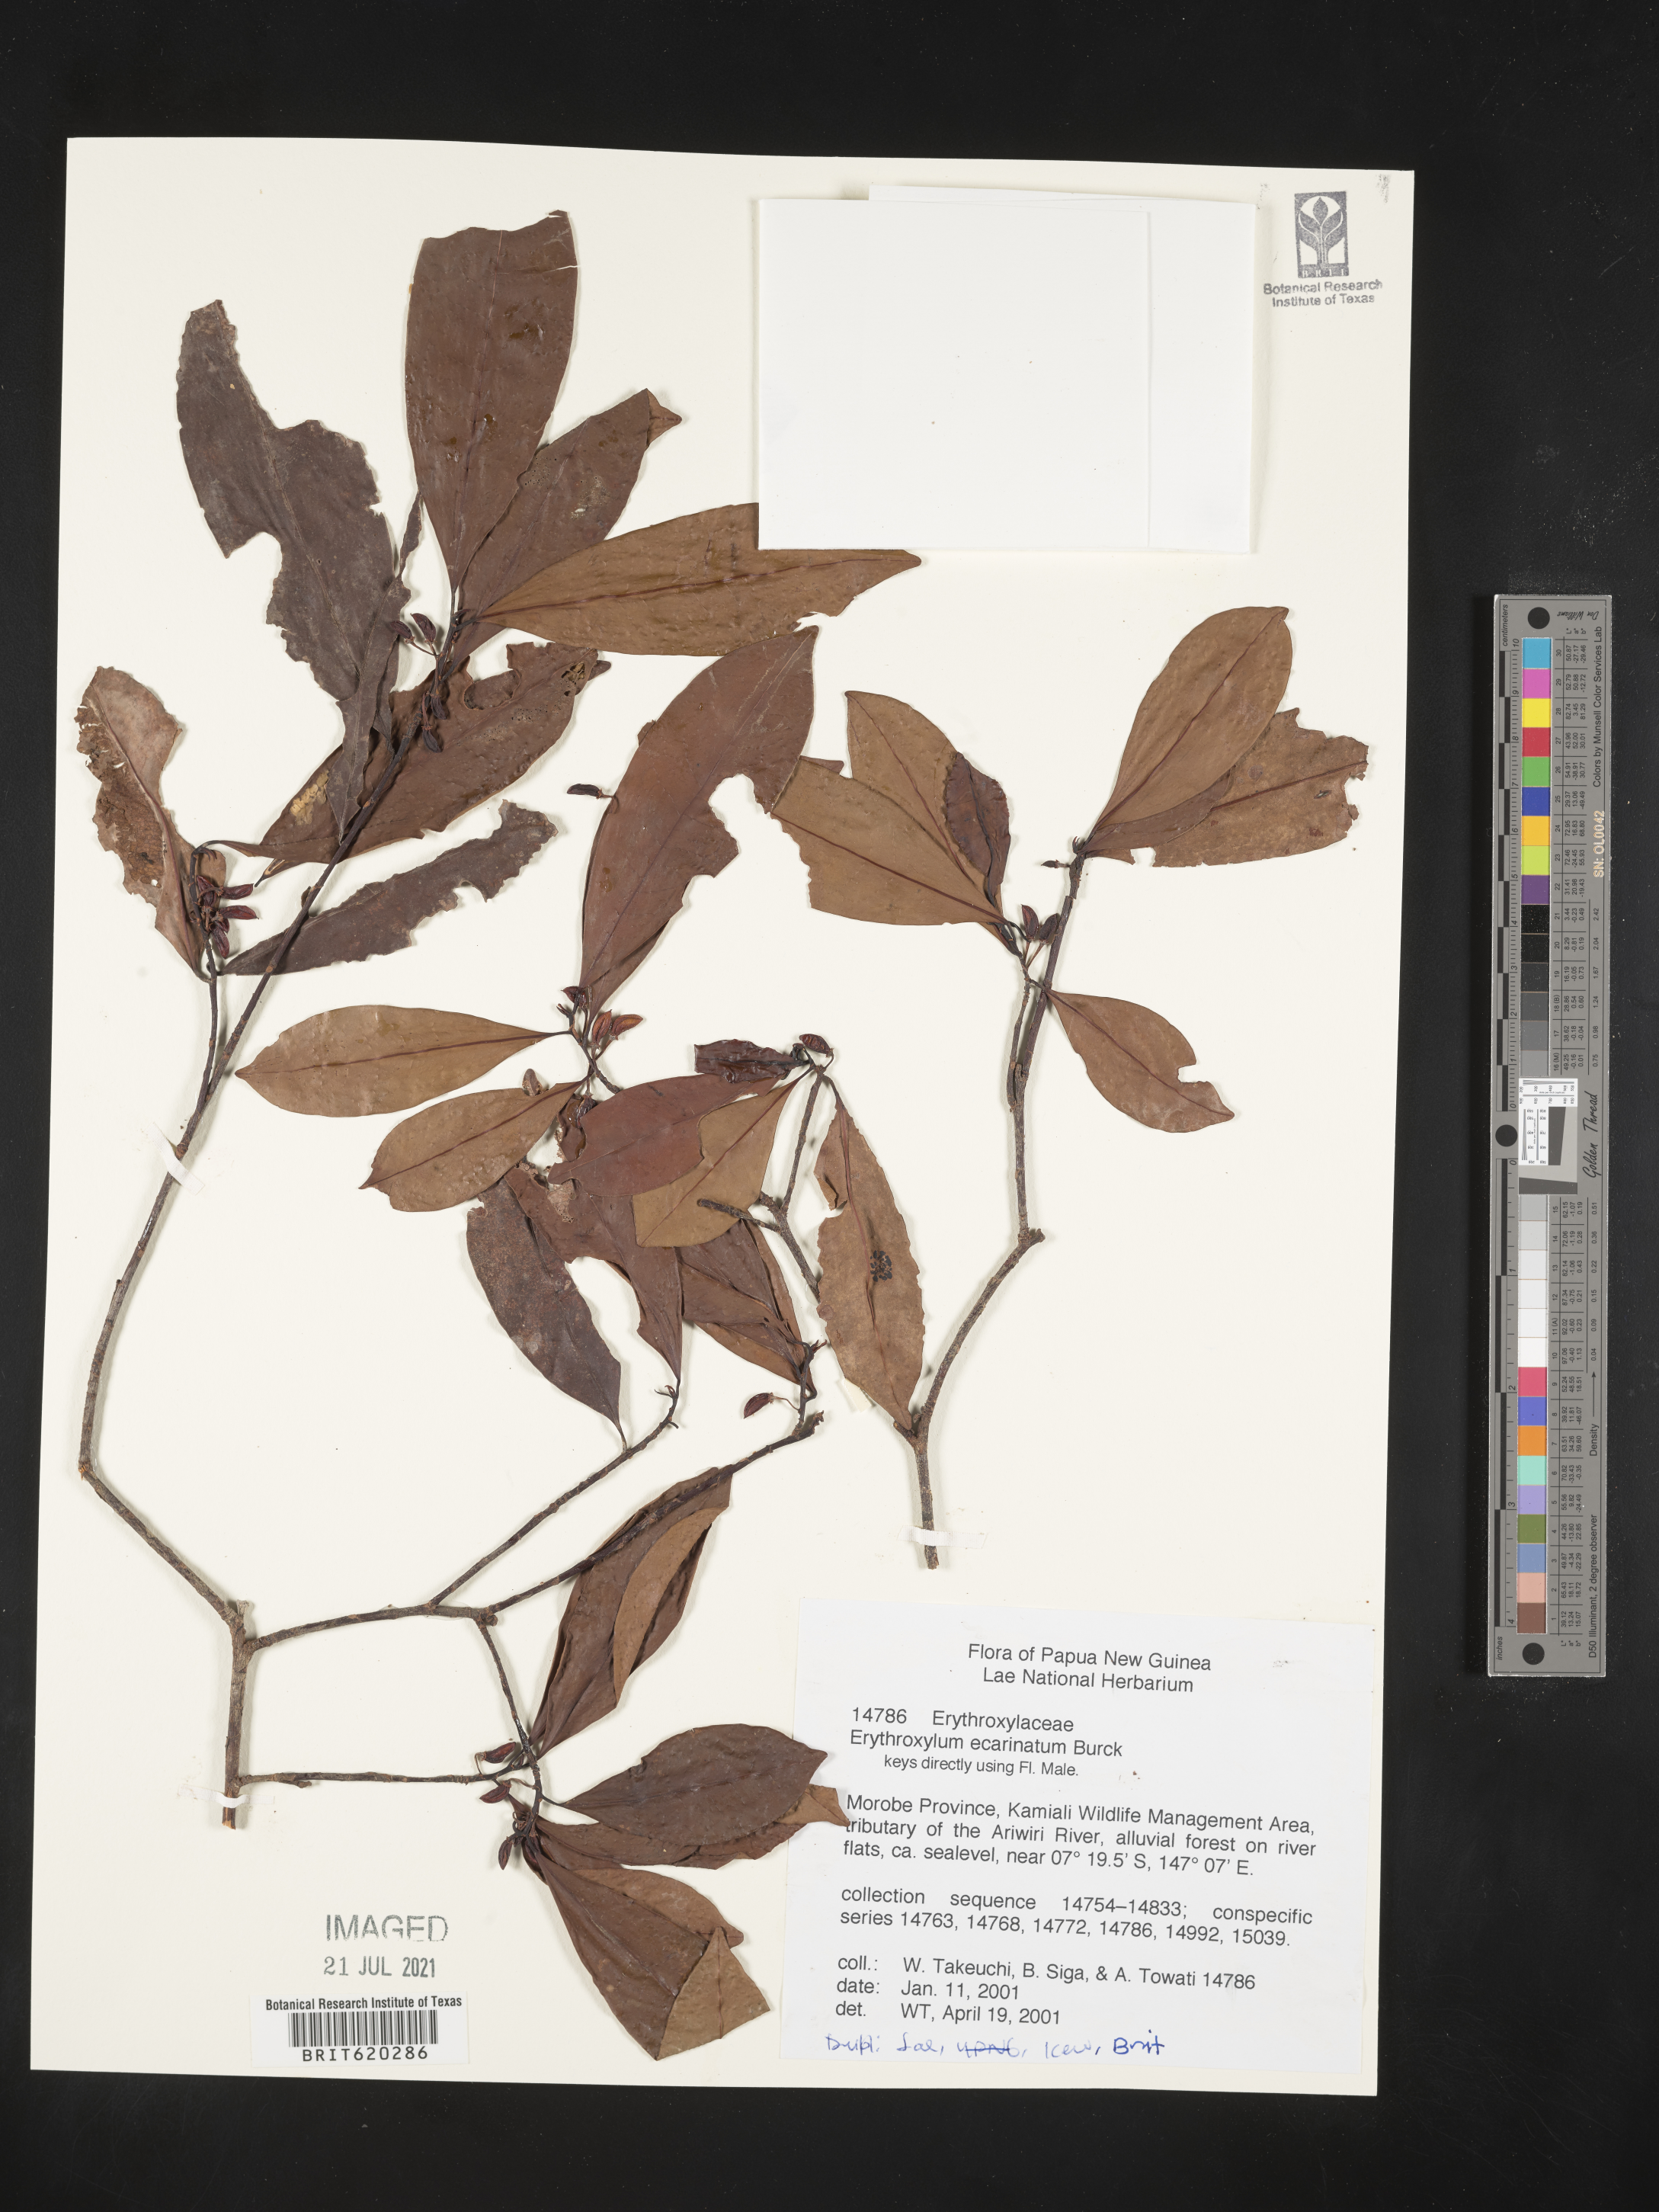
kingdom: Plantae
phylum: Tracheophyta
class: Magnoliopsida
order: Malpighiales
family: Erythroxylaceae
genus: Erythroxylum
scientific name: Erythroxylum ecarinatum
